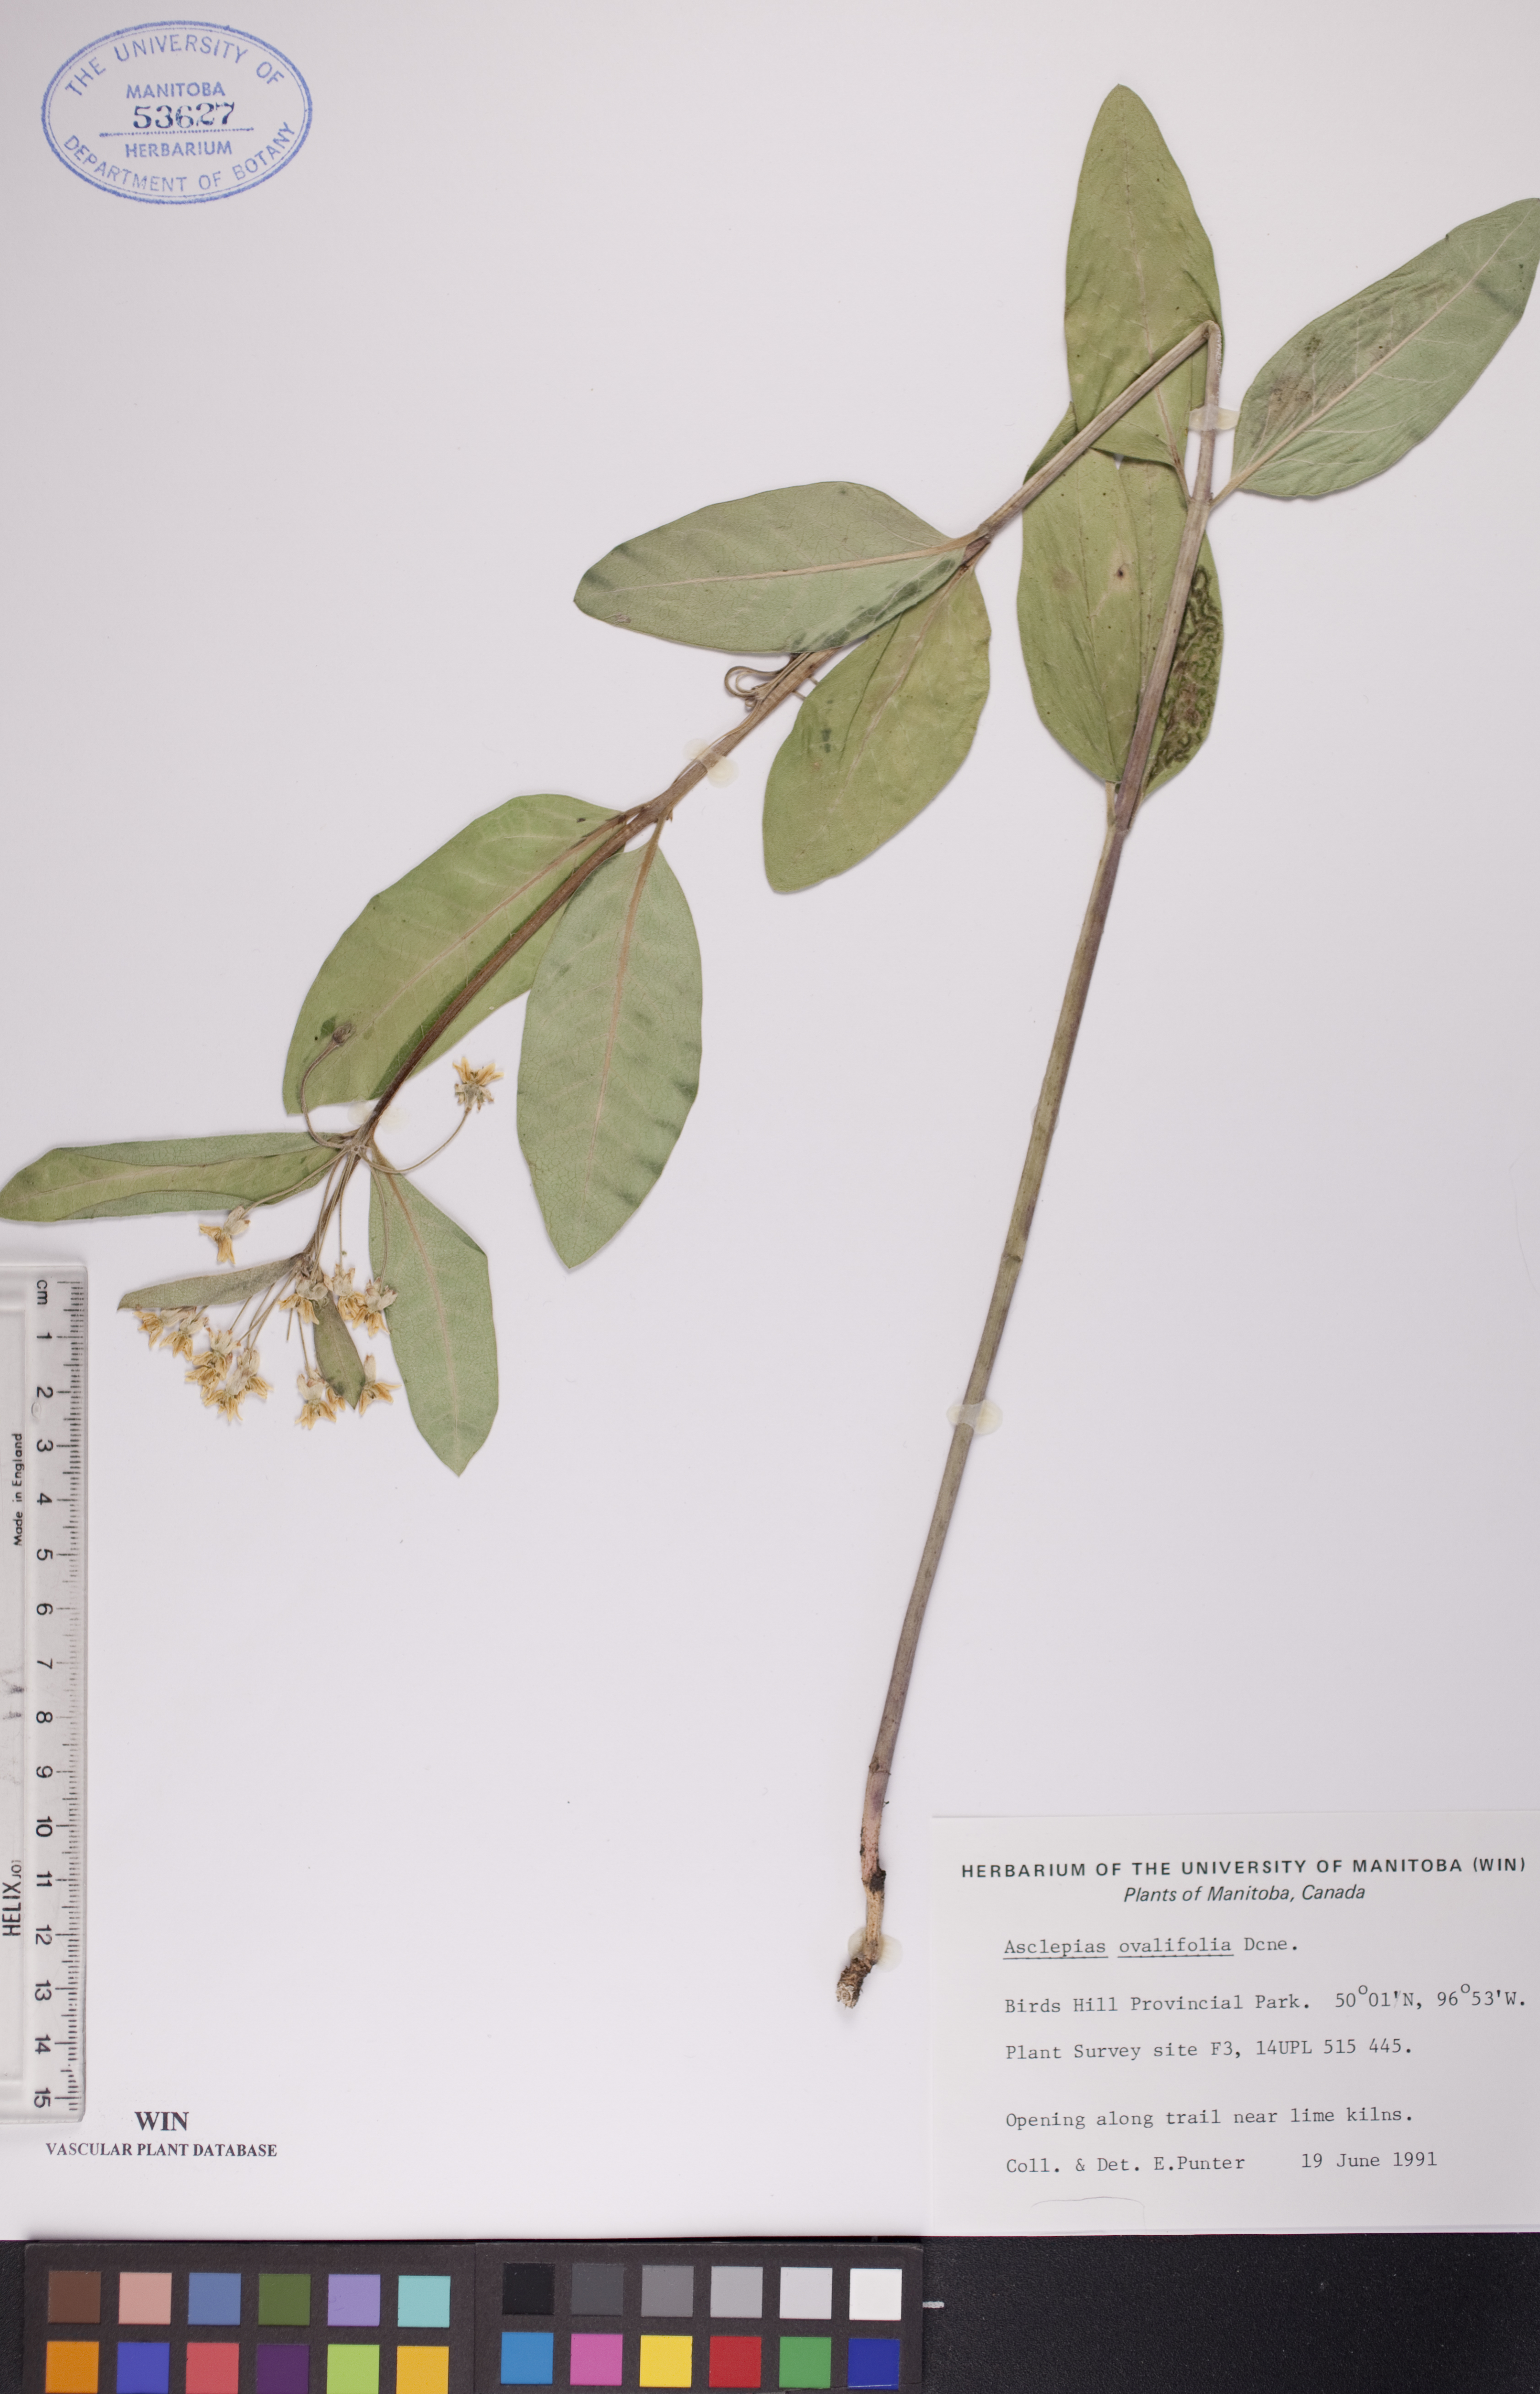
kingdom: Plantae
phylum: Tracheophyta
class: Magnoliopsida
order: Gentianales
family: Apocynaceae
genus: Asclepias
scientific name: Asclepias ovalifolia
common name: Dwarf milkweed
